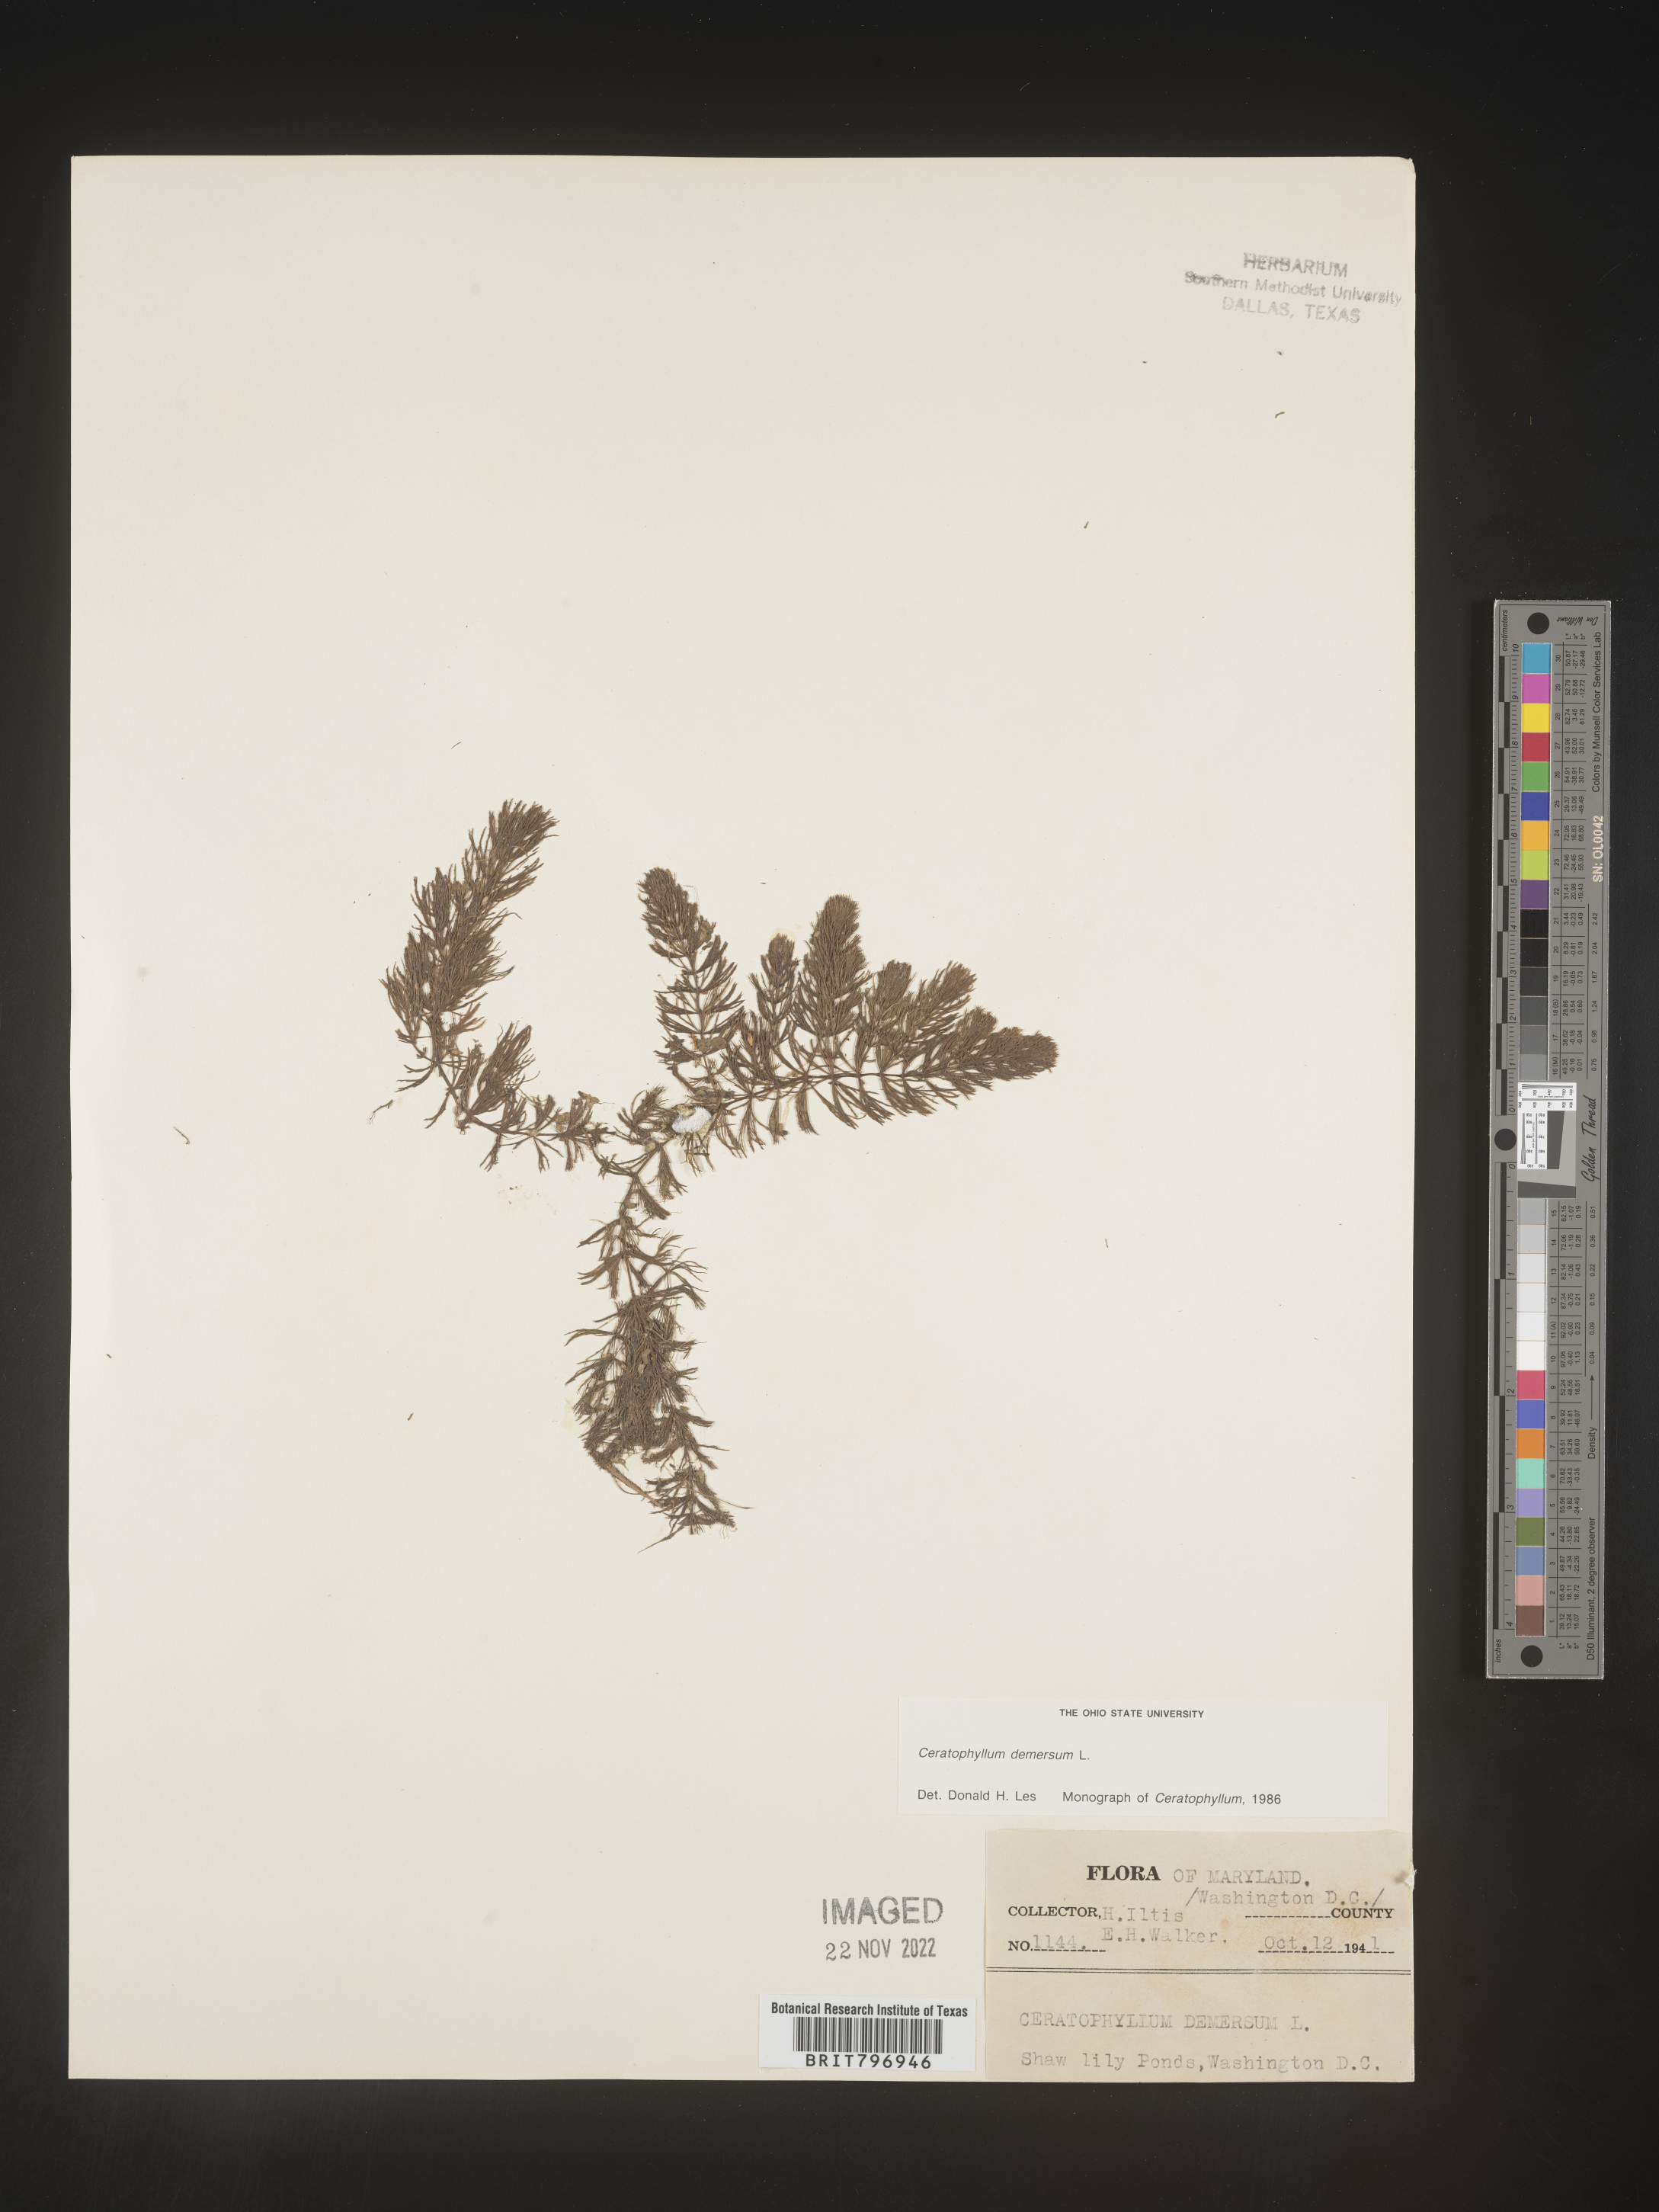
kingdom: Plantae
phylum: Tracheophyta
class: Magnoliopsida
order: Ceratophyllales
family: Ceratophyllaceae
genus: Ceratophyllum
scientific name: Ceratophyllum demersum
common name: Rigid hornwort
